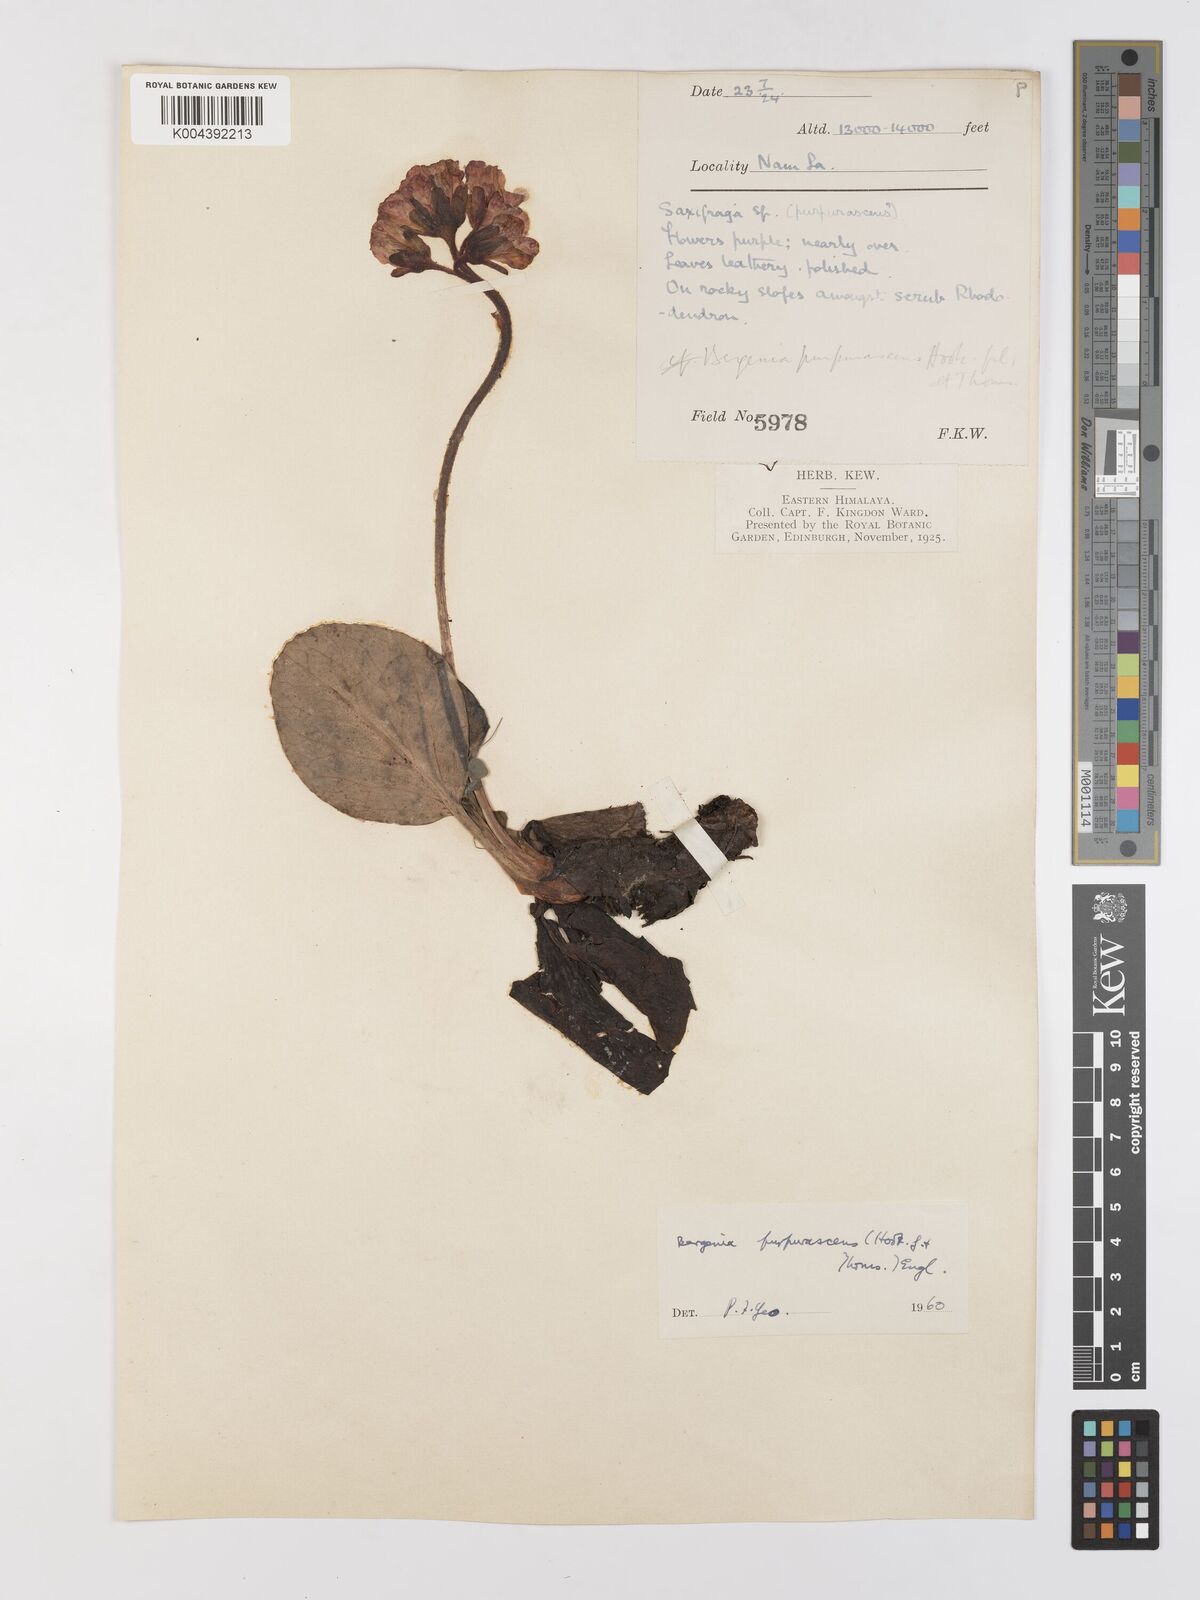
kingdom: Plantae
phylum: Tracheophyta
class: Magnoliopsida
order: Saxifragales
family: Saxifragaceae
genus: Bergenia
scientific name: Bergenia purpurascens
